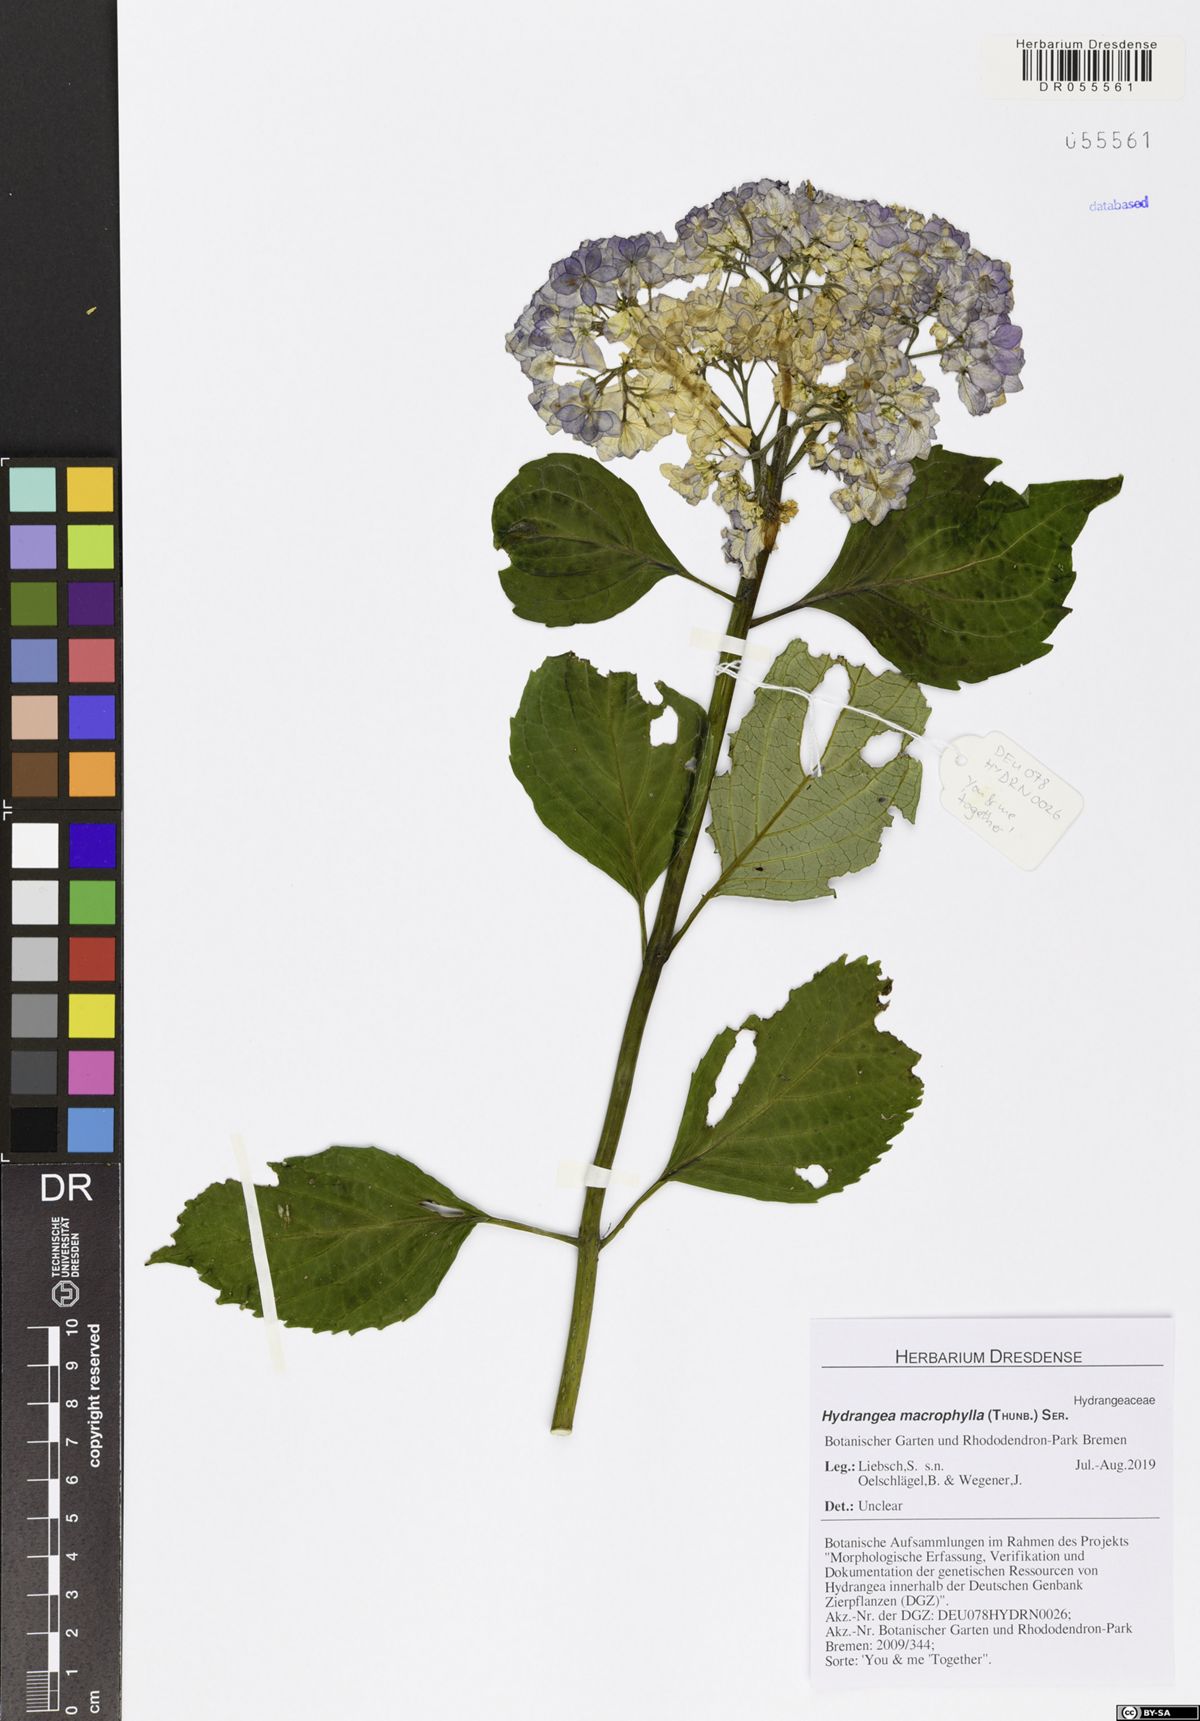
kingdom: Plantae
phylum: Tracheophyta
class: Magnoliopsida
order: Cornales
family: Hydrangeaceae
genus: Hydrangea
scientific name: Hydrangea macrophylla
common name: Hydrangea
